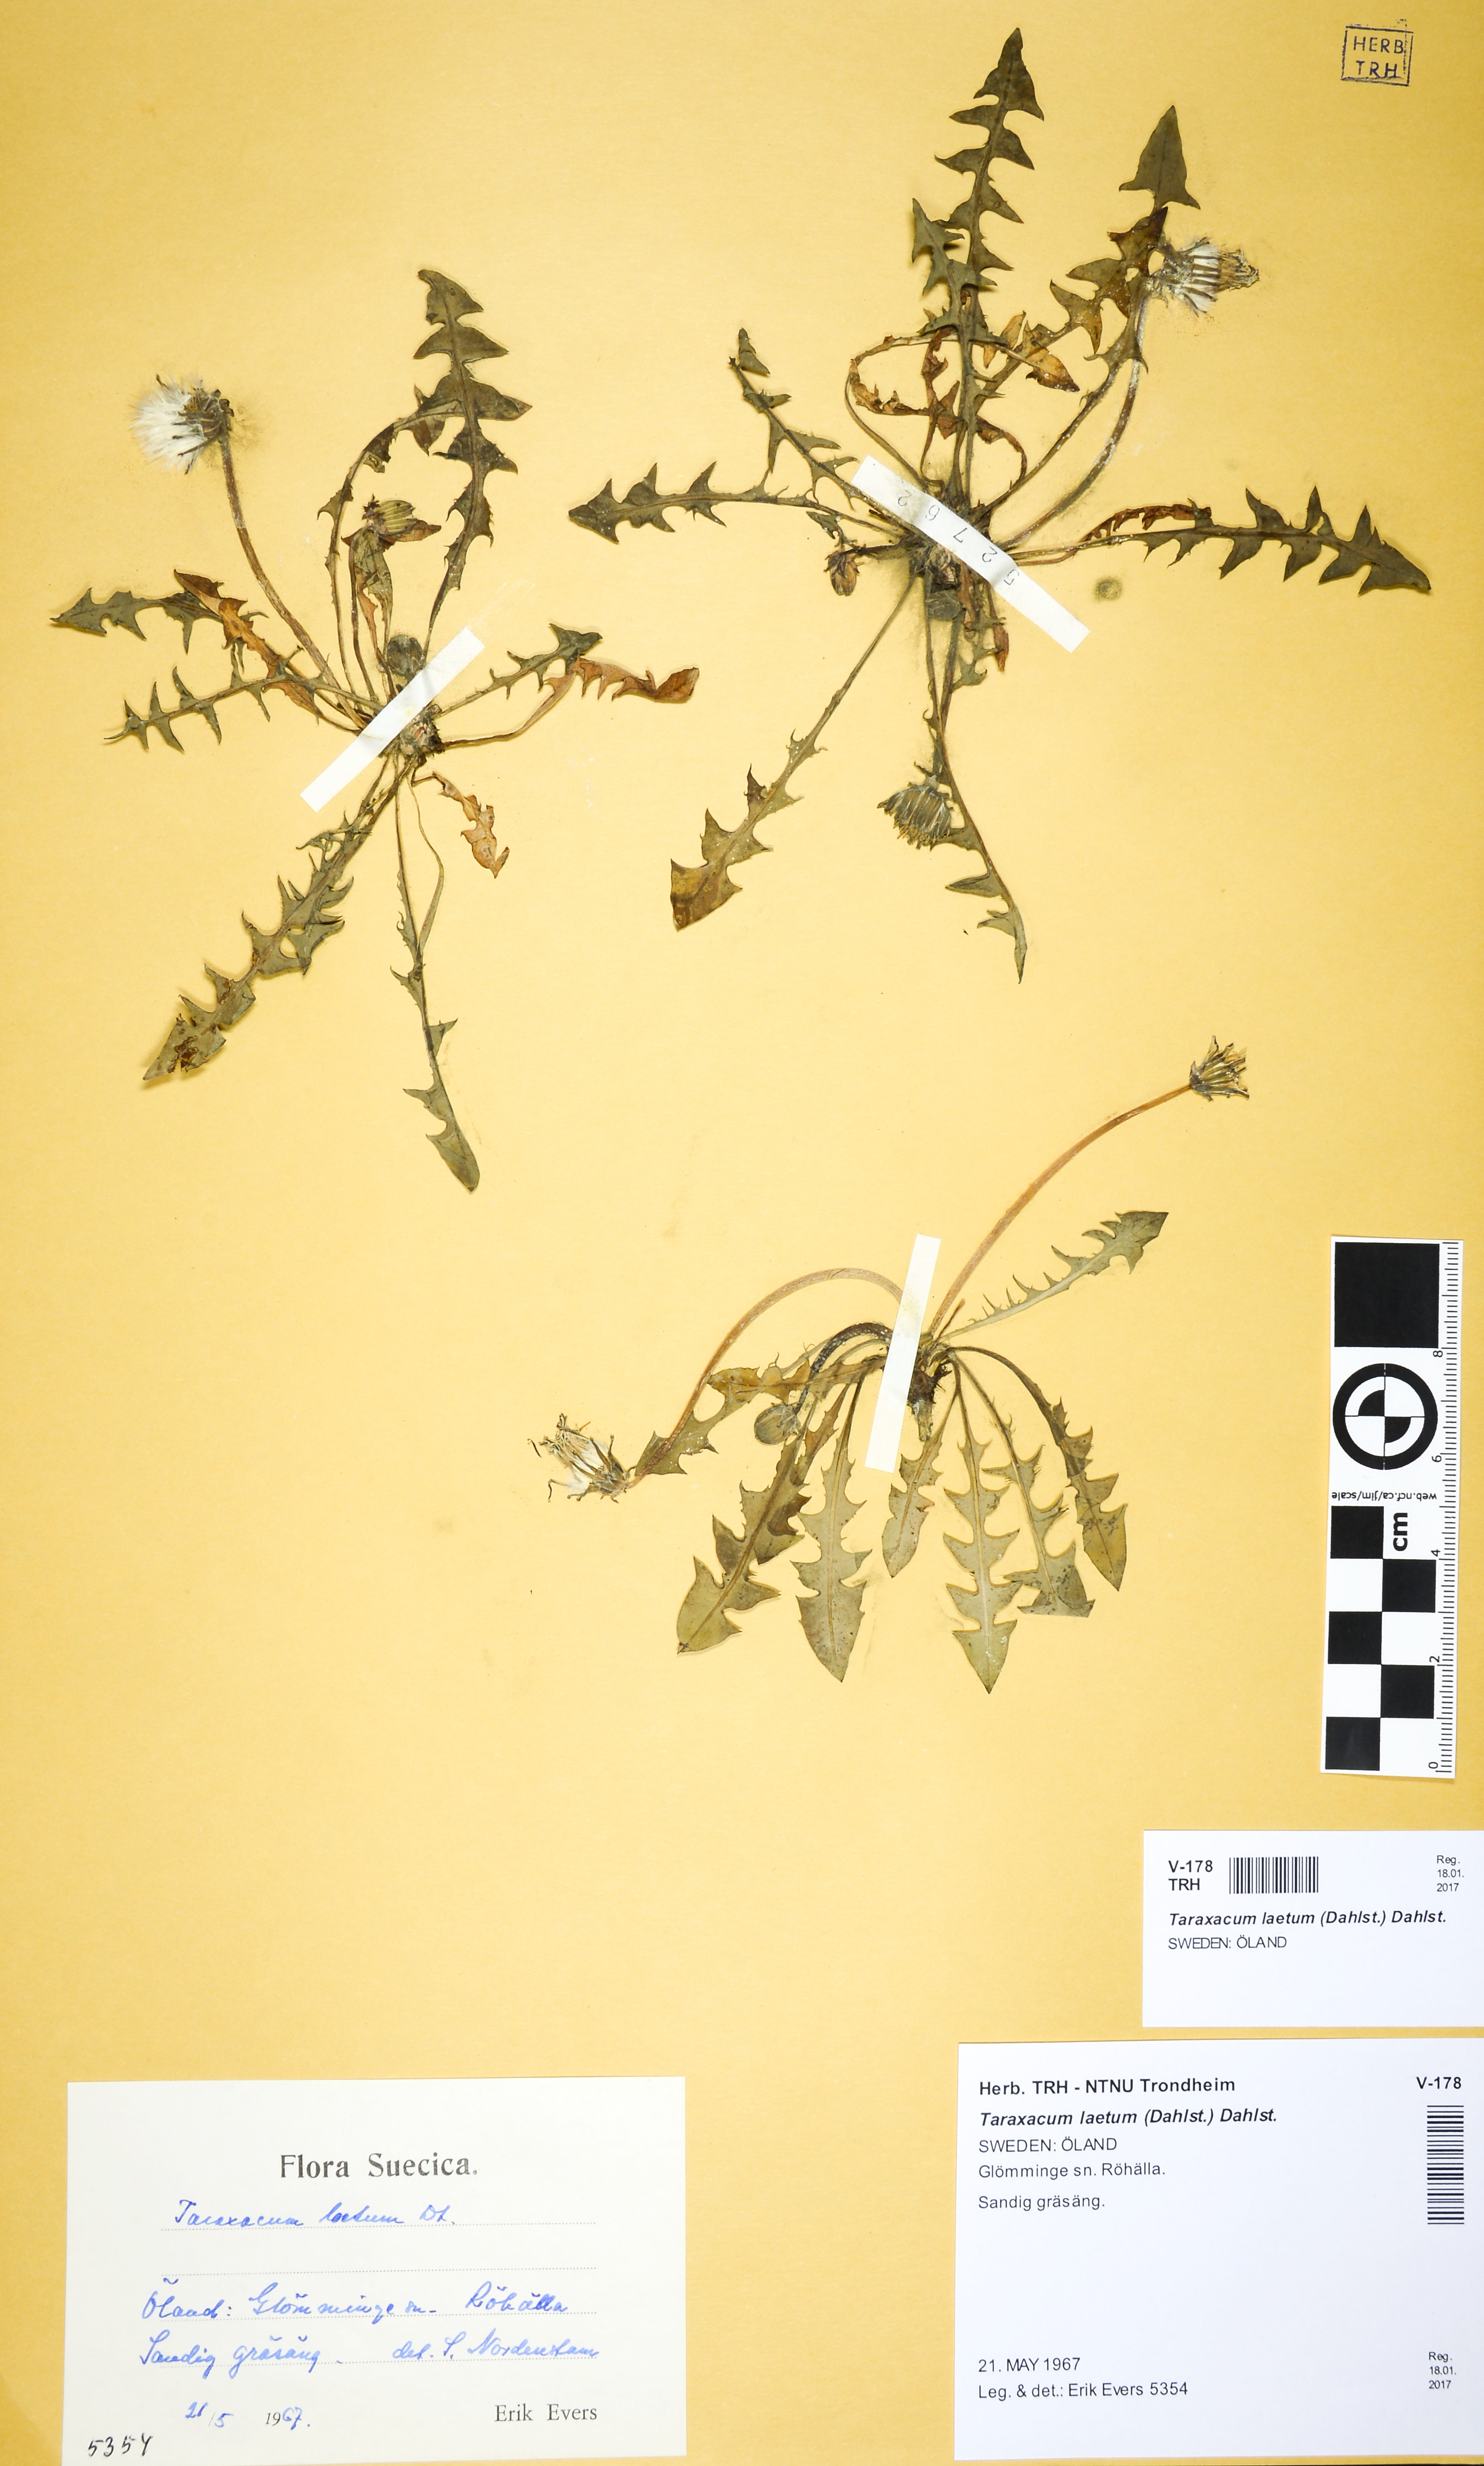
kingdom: Plantae
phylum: Tracheophyta
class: Magnoliopsida
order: Asterales
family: Asteraceae
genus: Taraxacum
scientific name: Taraxacum laetum
